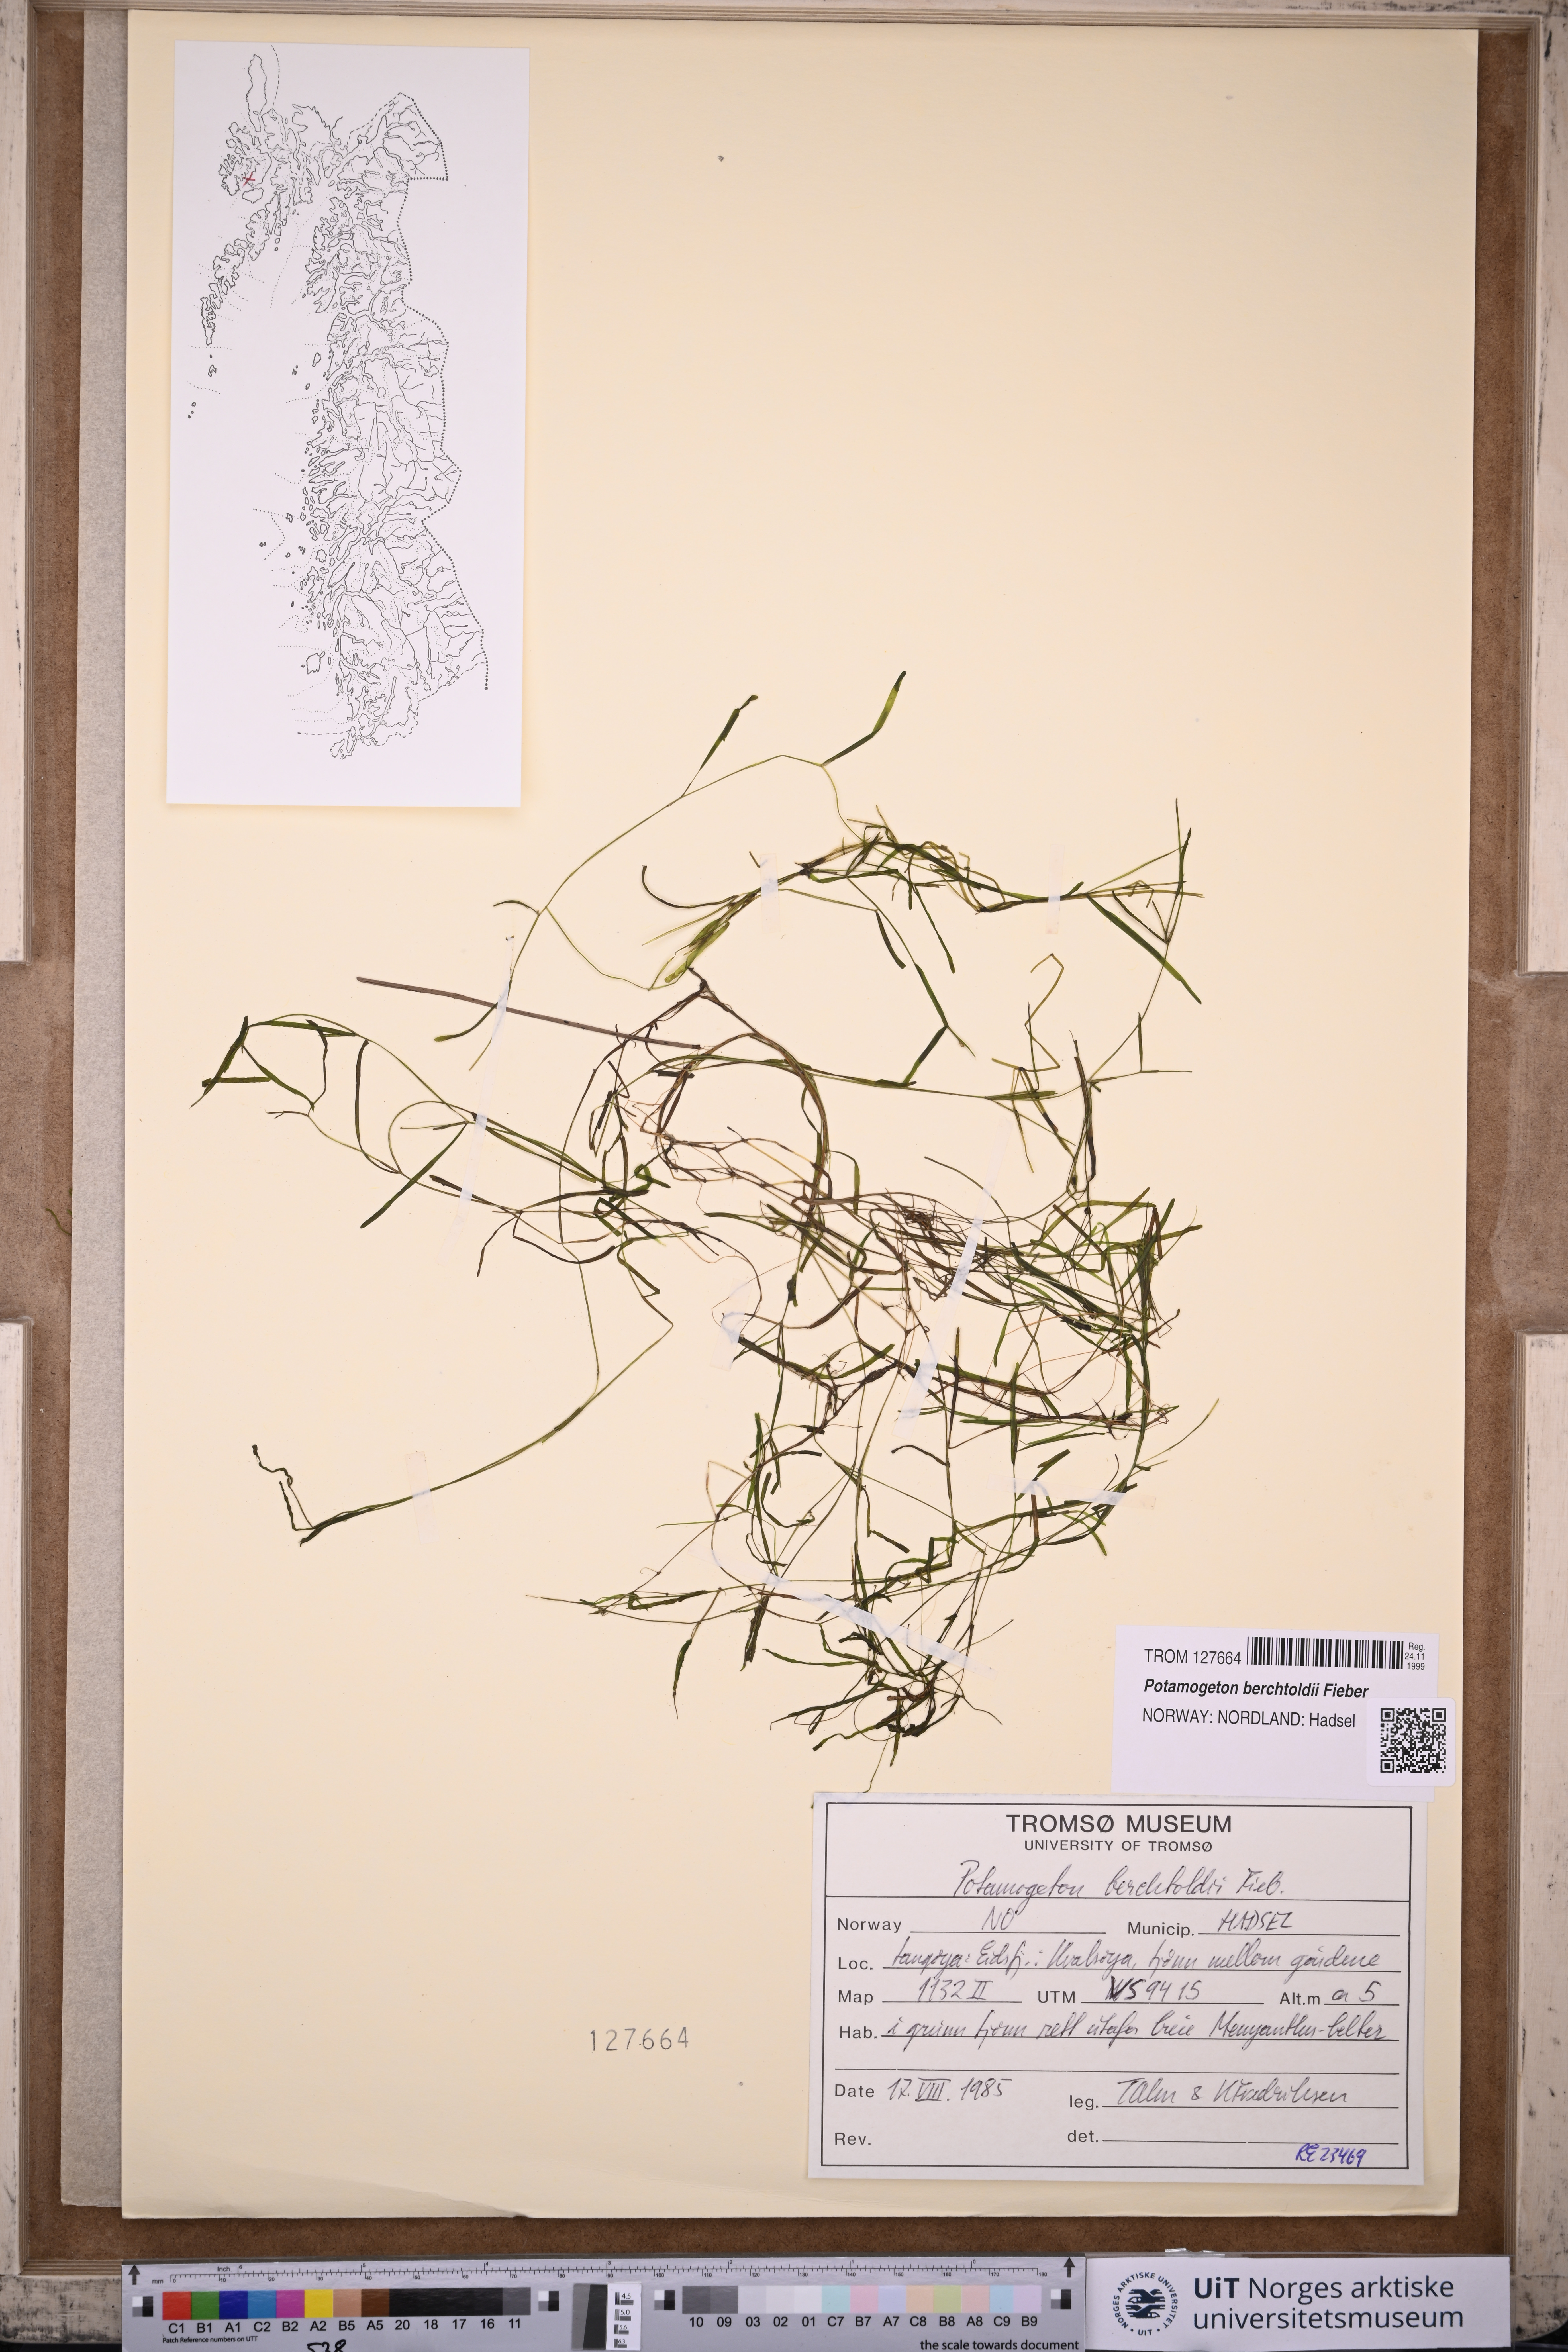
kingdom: Plantae
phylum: Tracheophyta
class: Liliopsida
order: Alismatales
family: Potamogetonaceae
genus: Potamogeton
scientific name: Potamogeton berchtoldii
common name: Small pondweed
